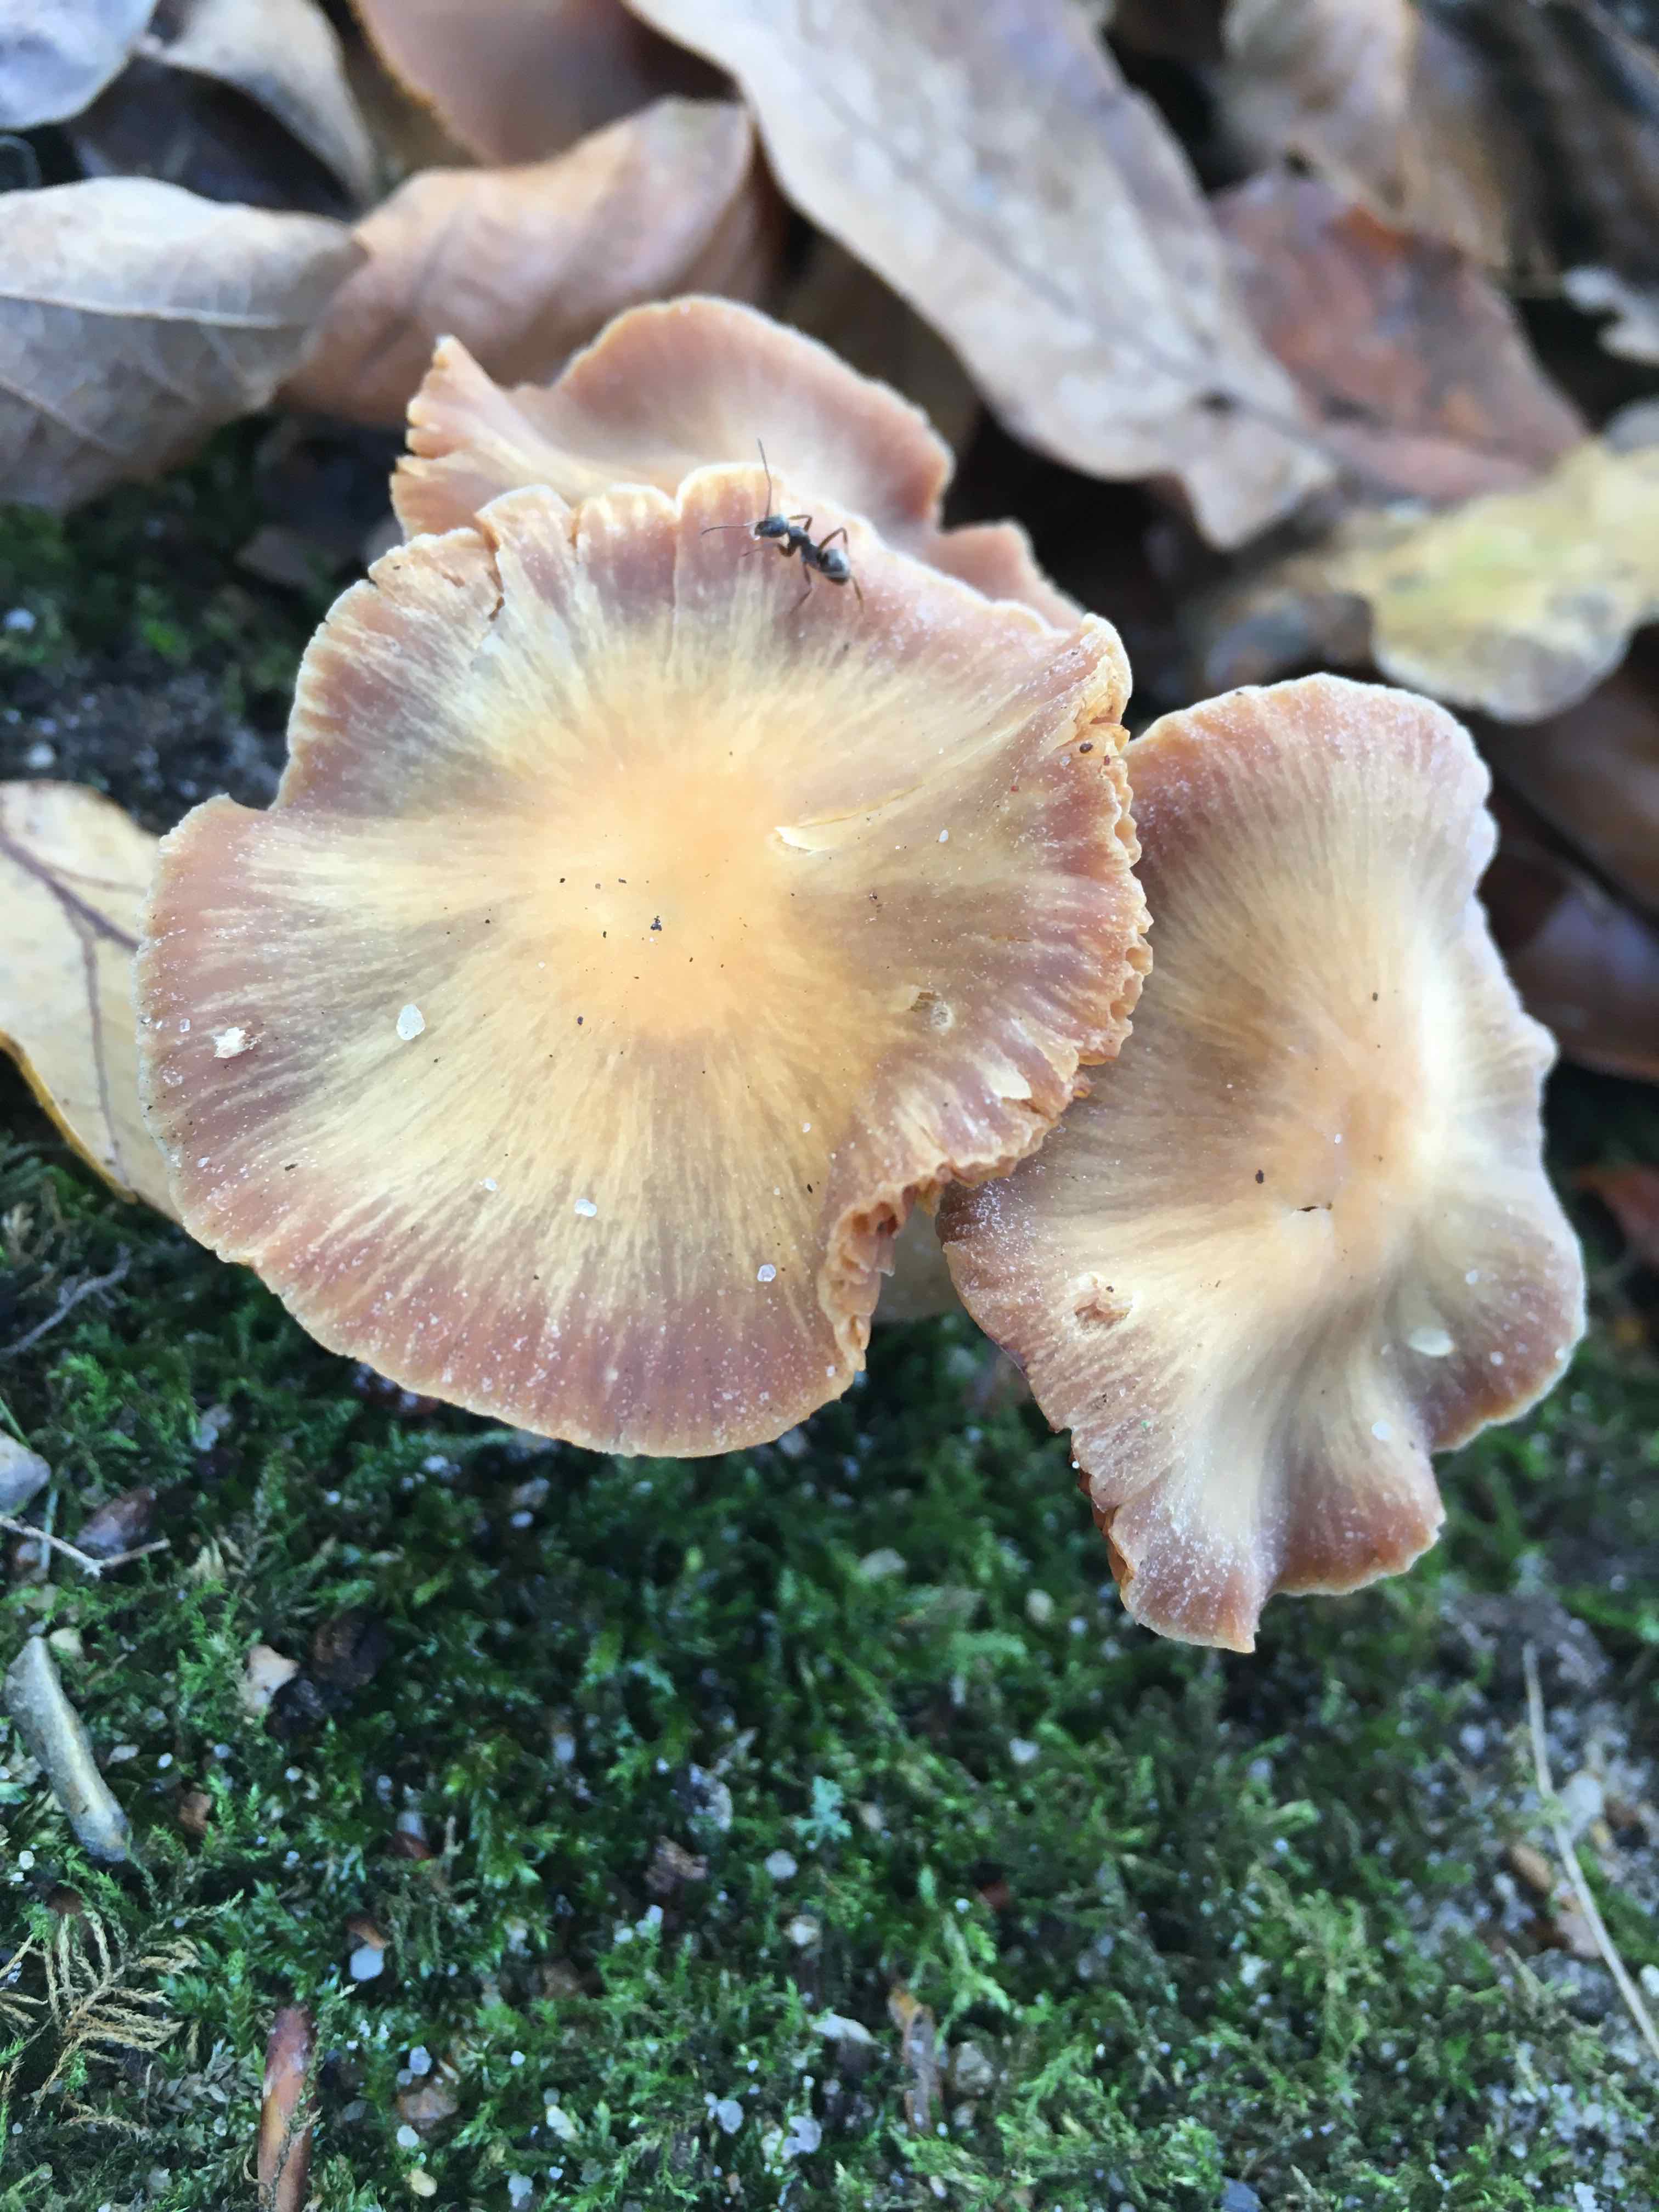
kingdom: Fungi
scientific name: Fungi
